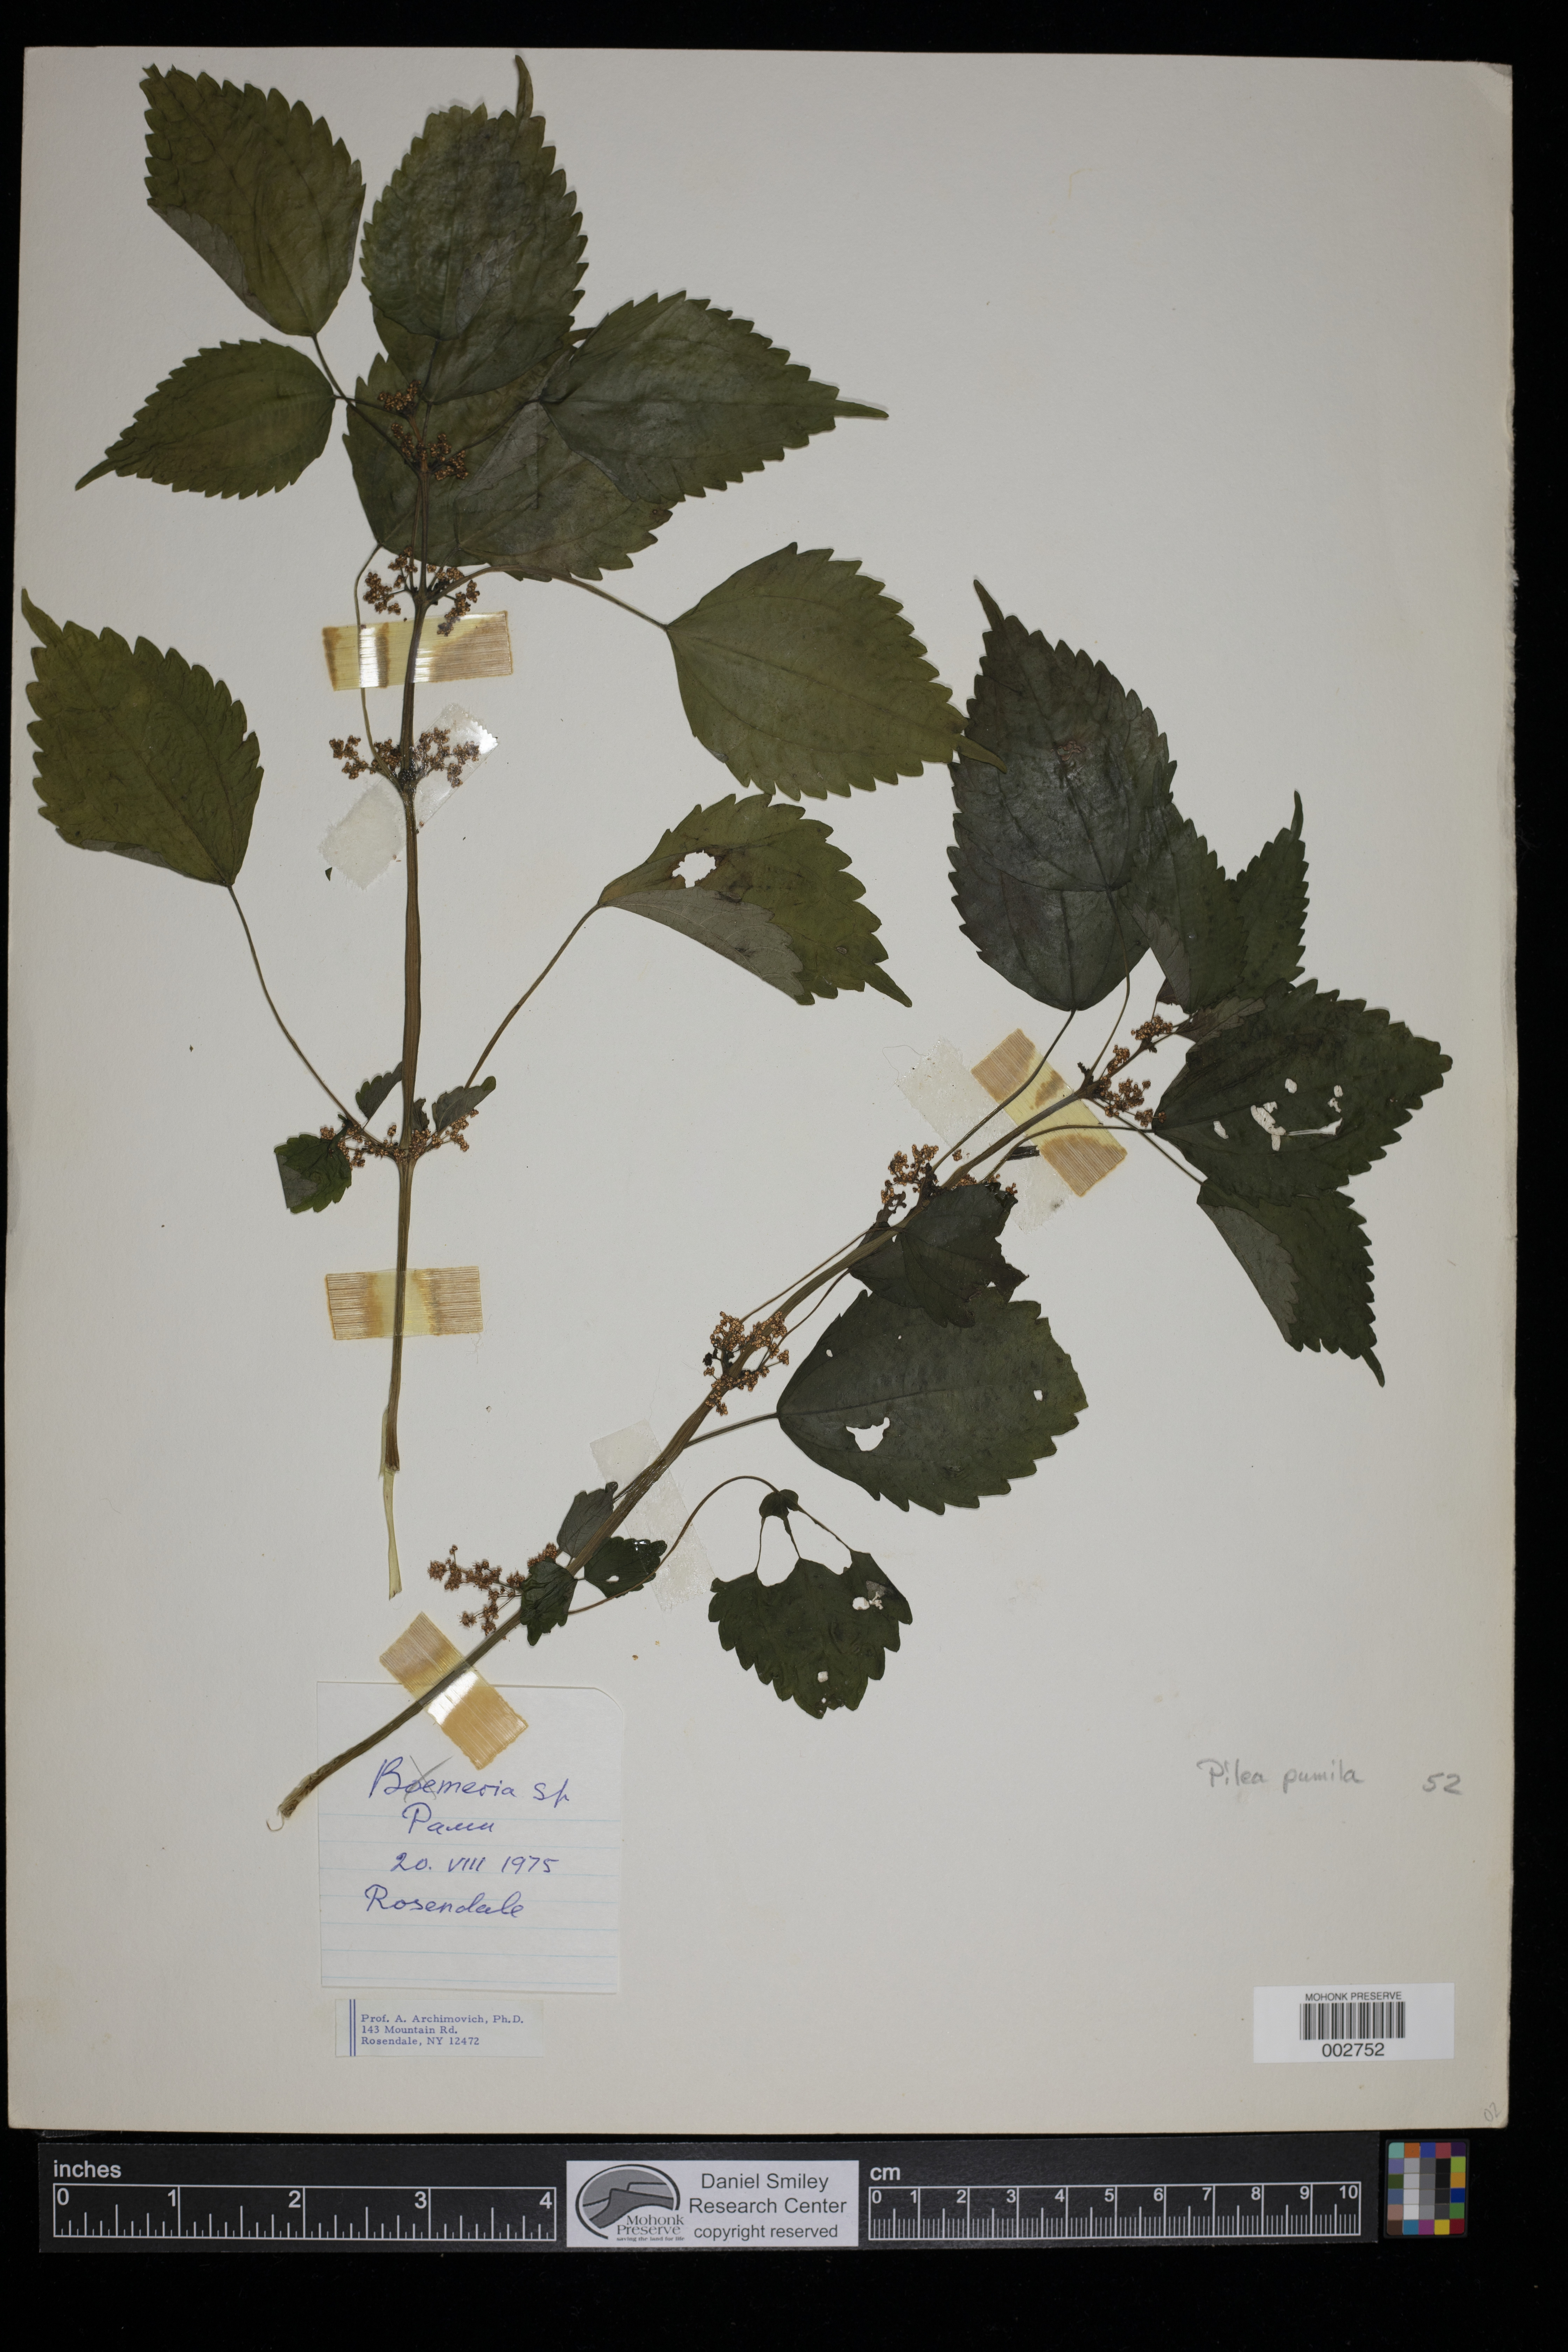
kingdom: Plantae
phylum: Tracheophyta
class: Magnoliopsida
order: Rosales
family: Urticaceae
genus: Pilea
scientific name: Pilea pumila
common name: Clearweed
